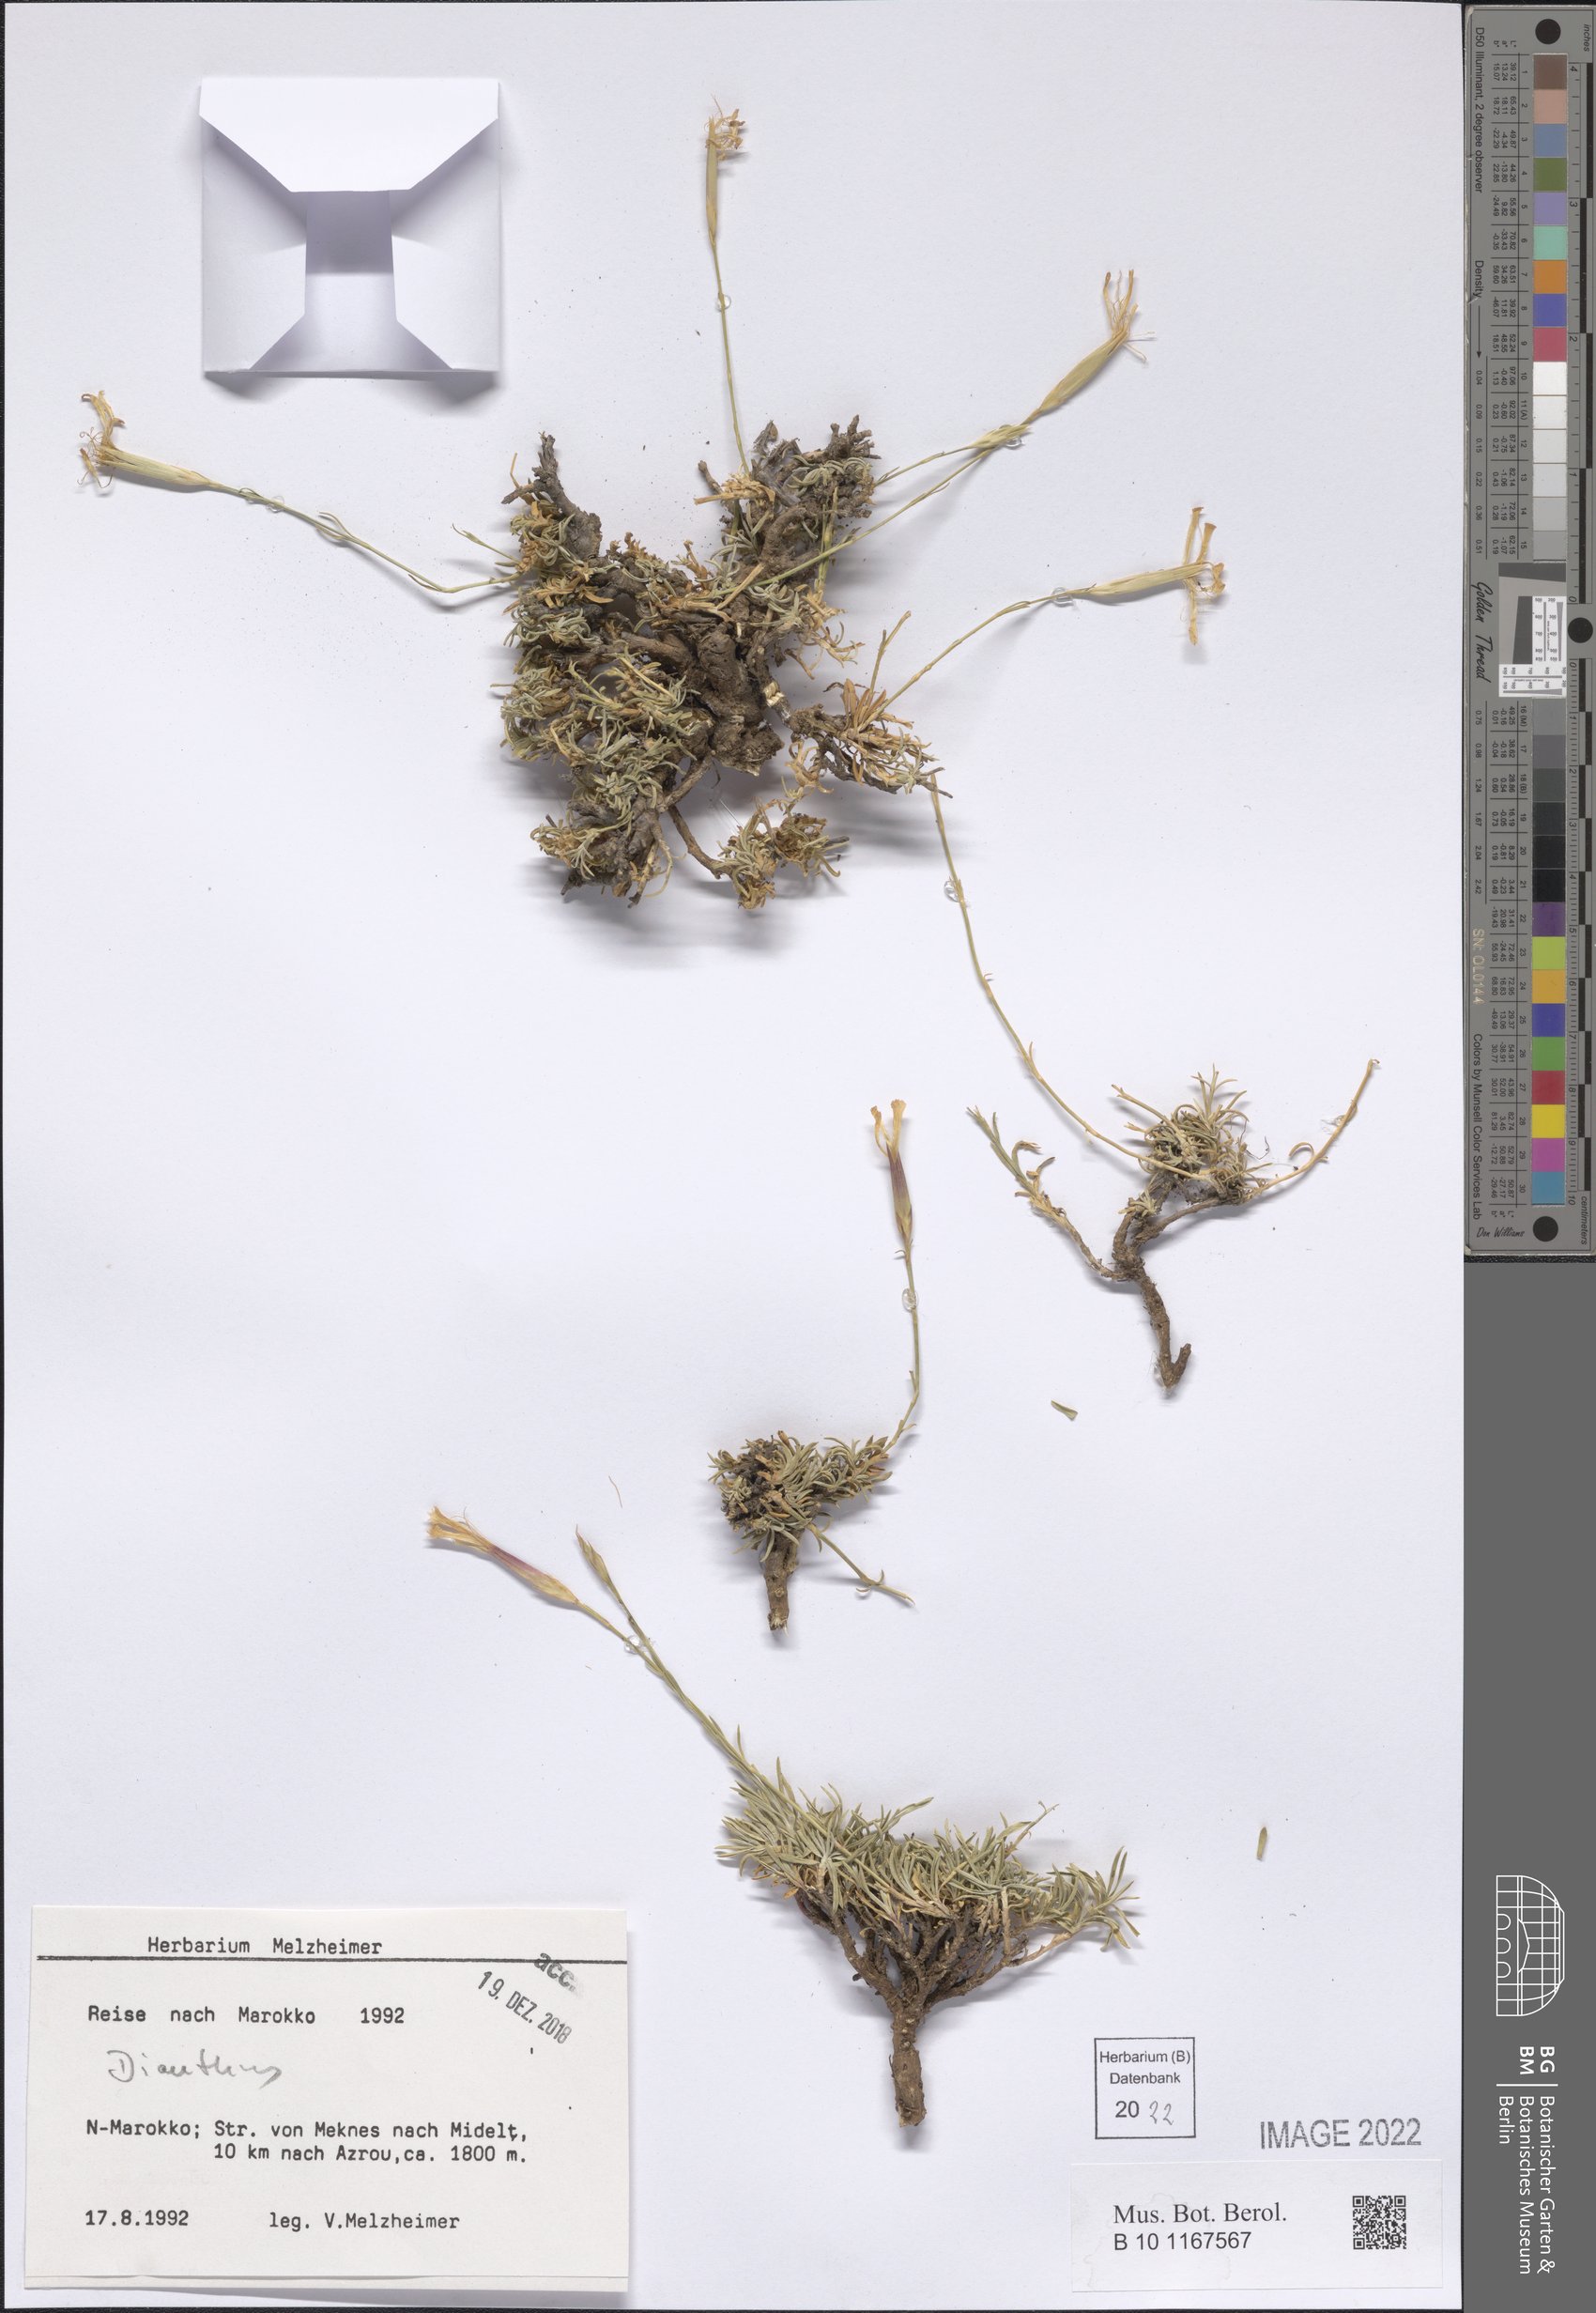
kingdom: Plantae
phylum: Tracheophyta
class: Magnoliopsida
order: Caryophyllales
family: Caryophyllaceae
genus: Dianthus
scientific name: Dianthus
